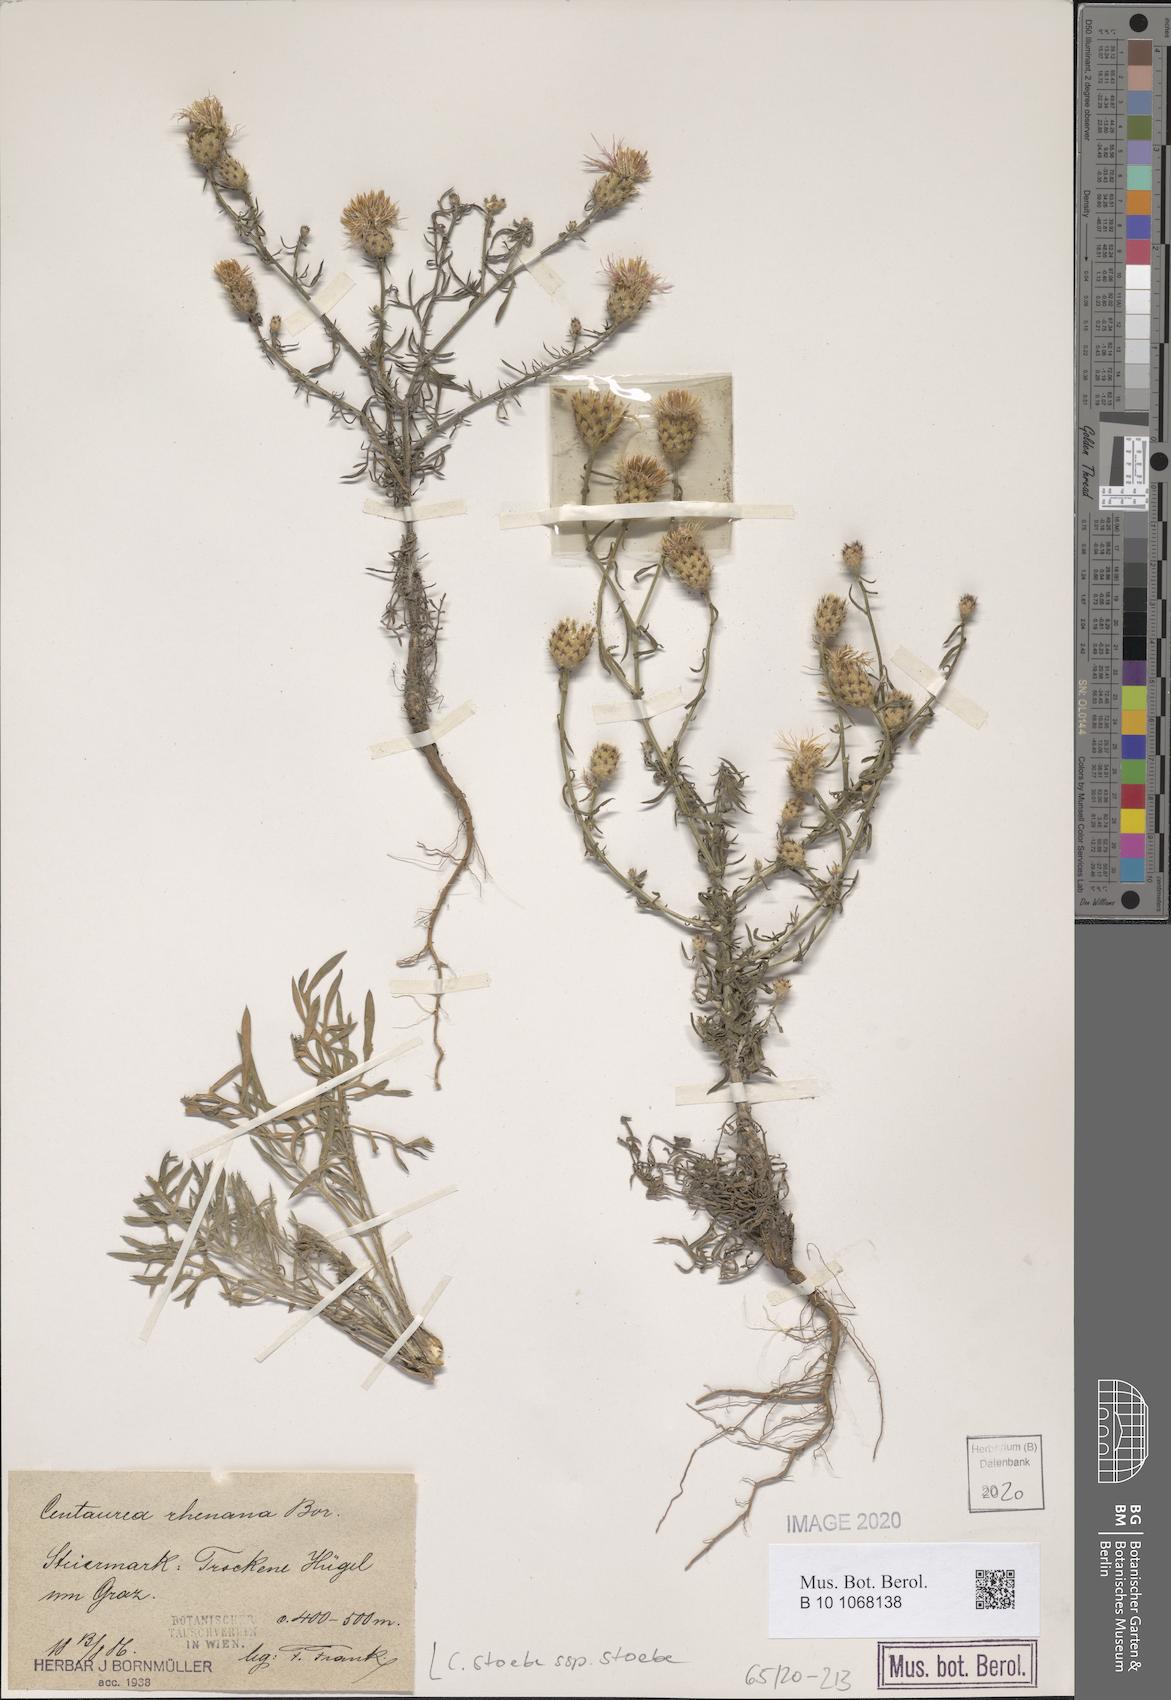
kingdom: Plantae
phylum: Tracheophyta
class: Magnoliopsida
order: Asterales
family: Asteraceae
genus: Centaurea
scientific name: Centaurea stoebe
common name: Spotted knapweed
